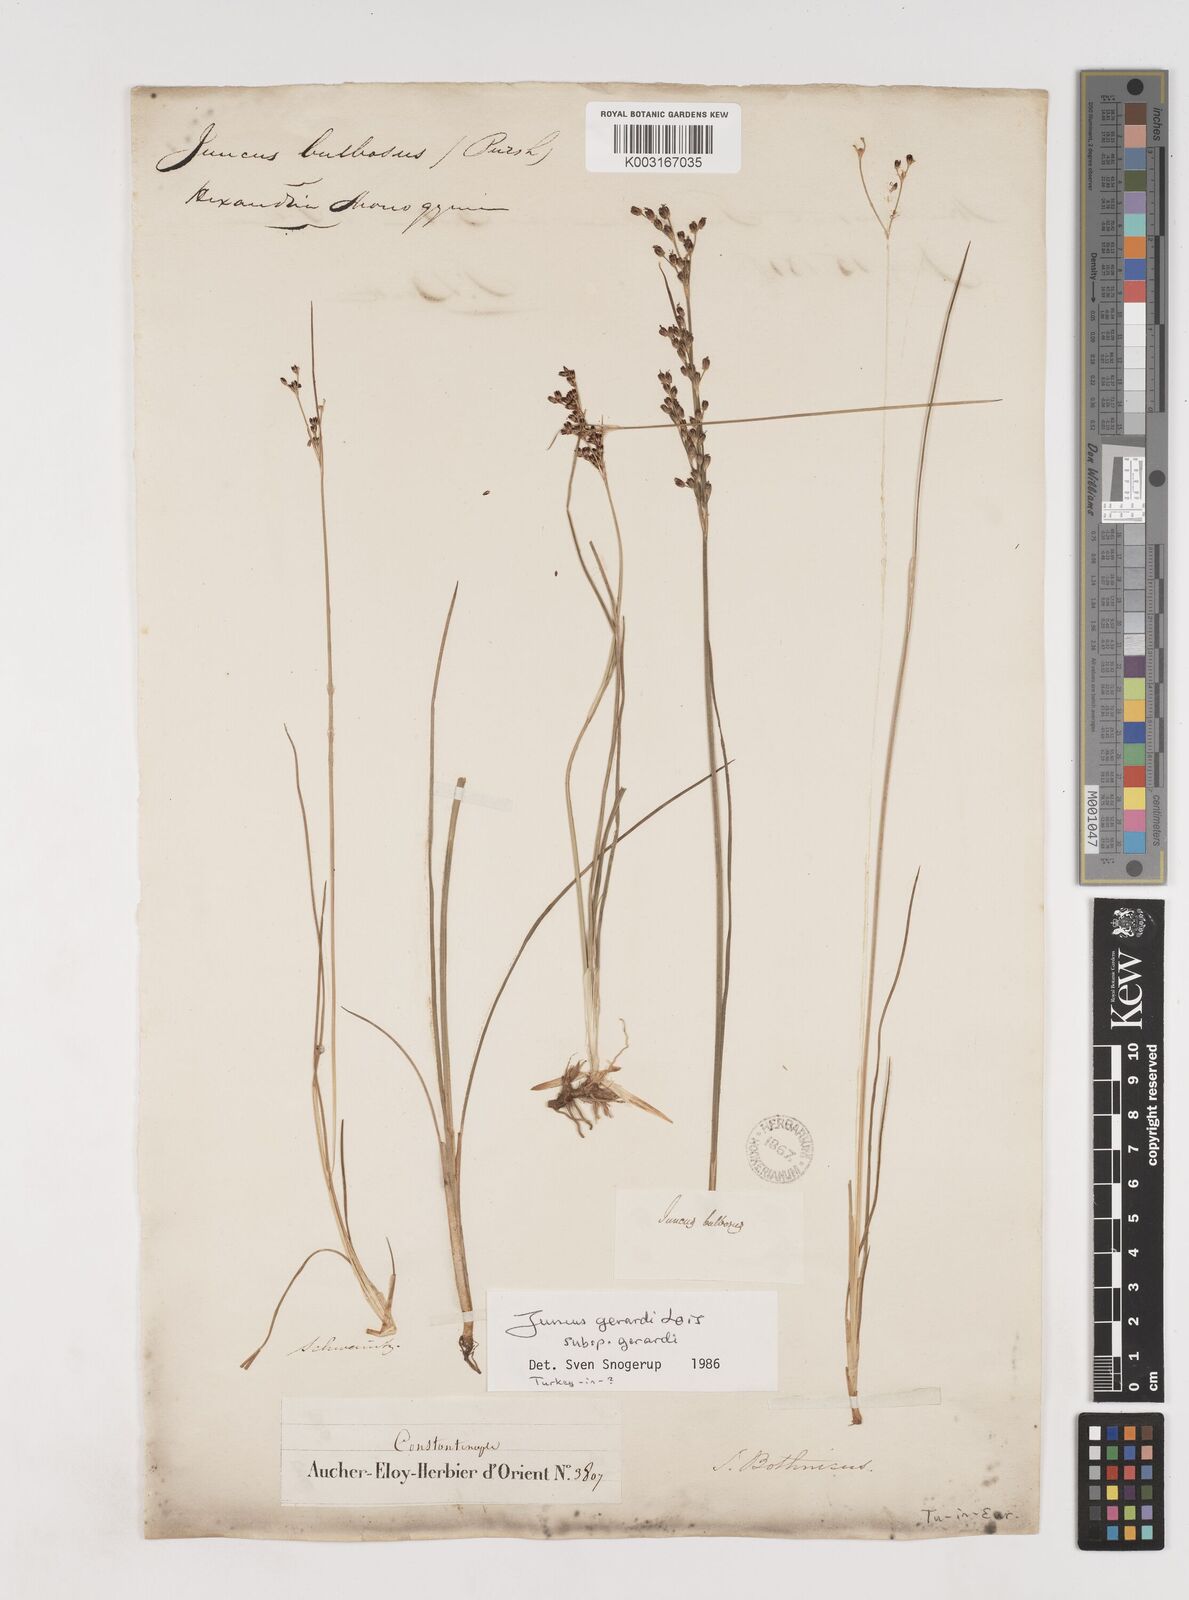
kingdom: Plantae
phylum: Tracheophyta
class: Liliopsida
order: Poales
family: Juncaceae
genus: Juncus
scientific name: Juncus gerardi
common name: Saltmarsh rush
